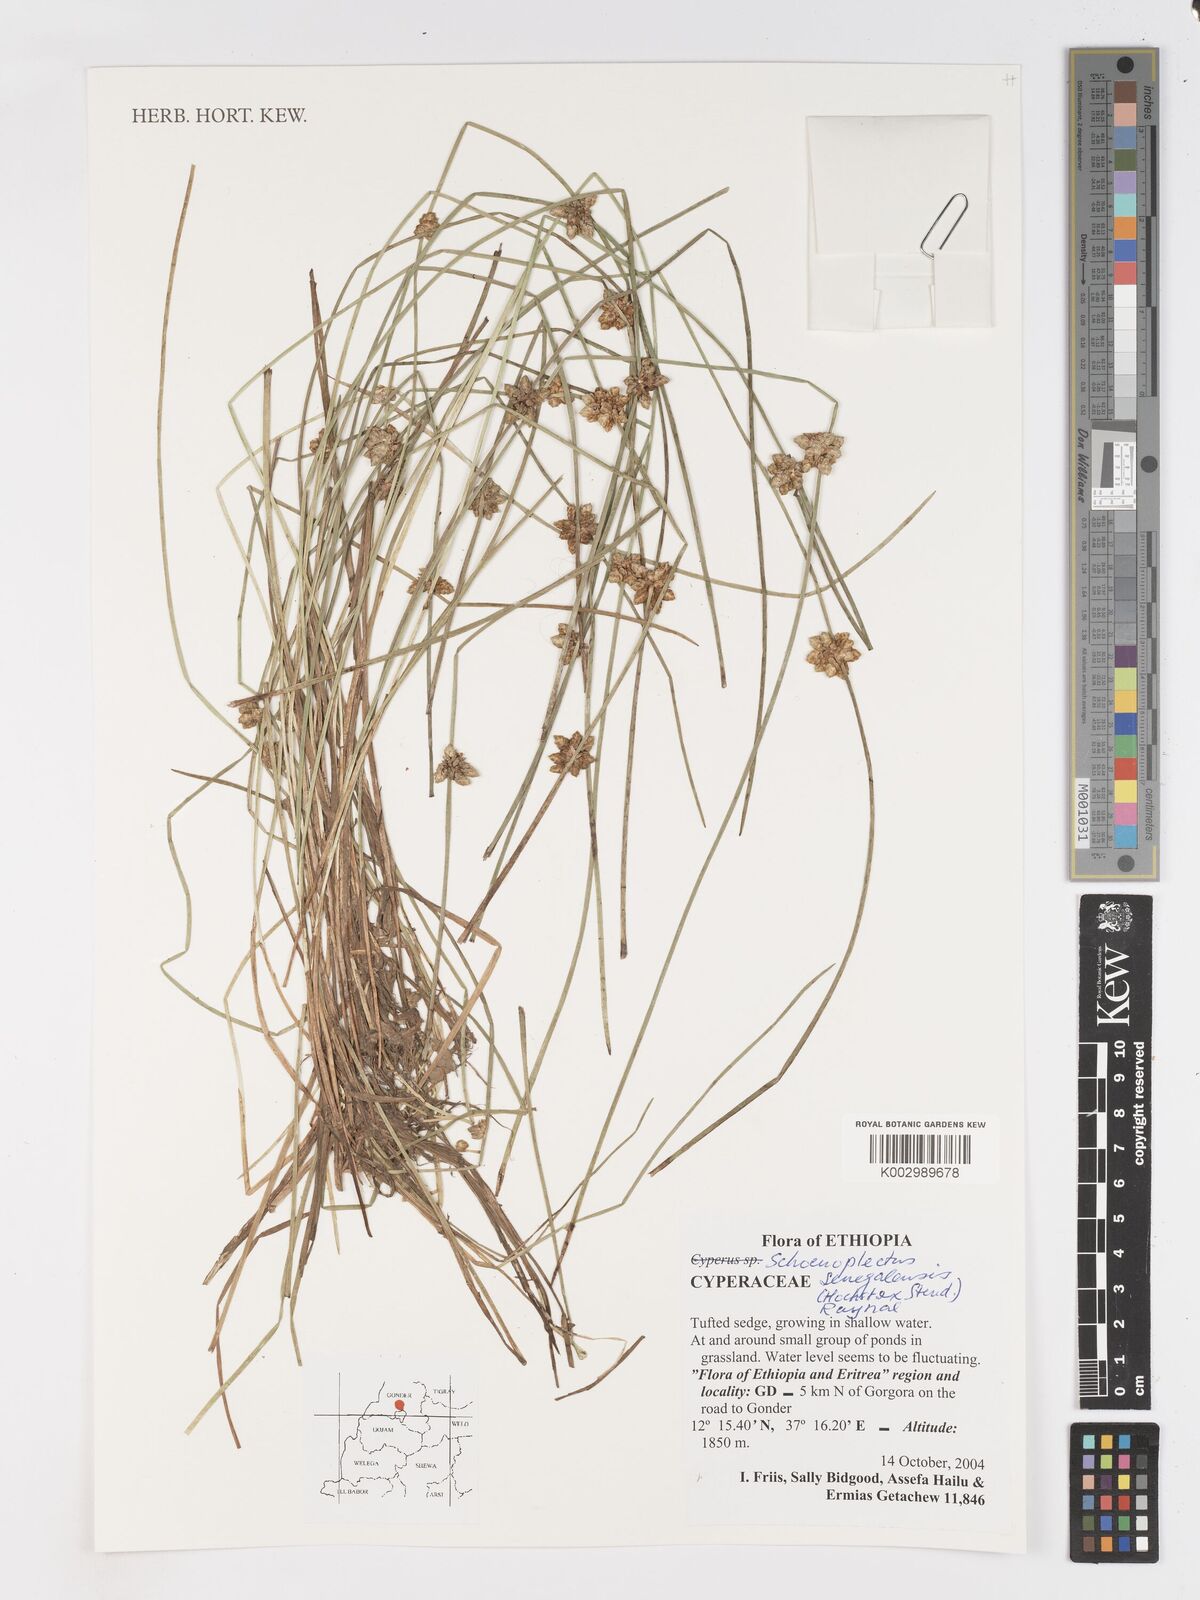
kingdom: Plantae
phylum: Tracheophyta
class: Liliopsida
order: Poales
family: Cyperaceae
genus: Schoenoplectiella
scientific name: Schoenoplectiella senegalensis
